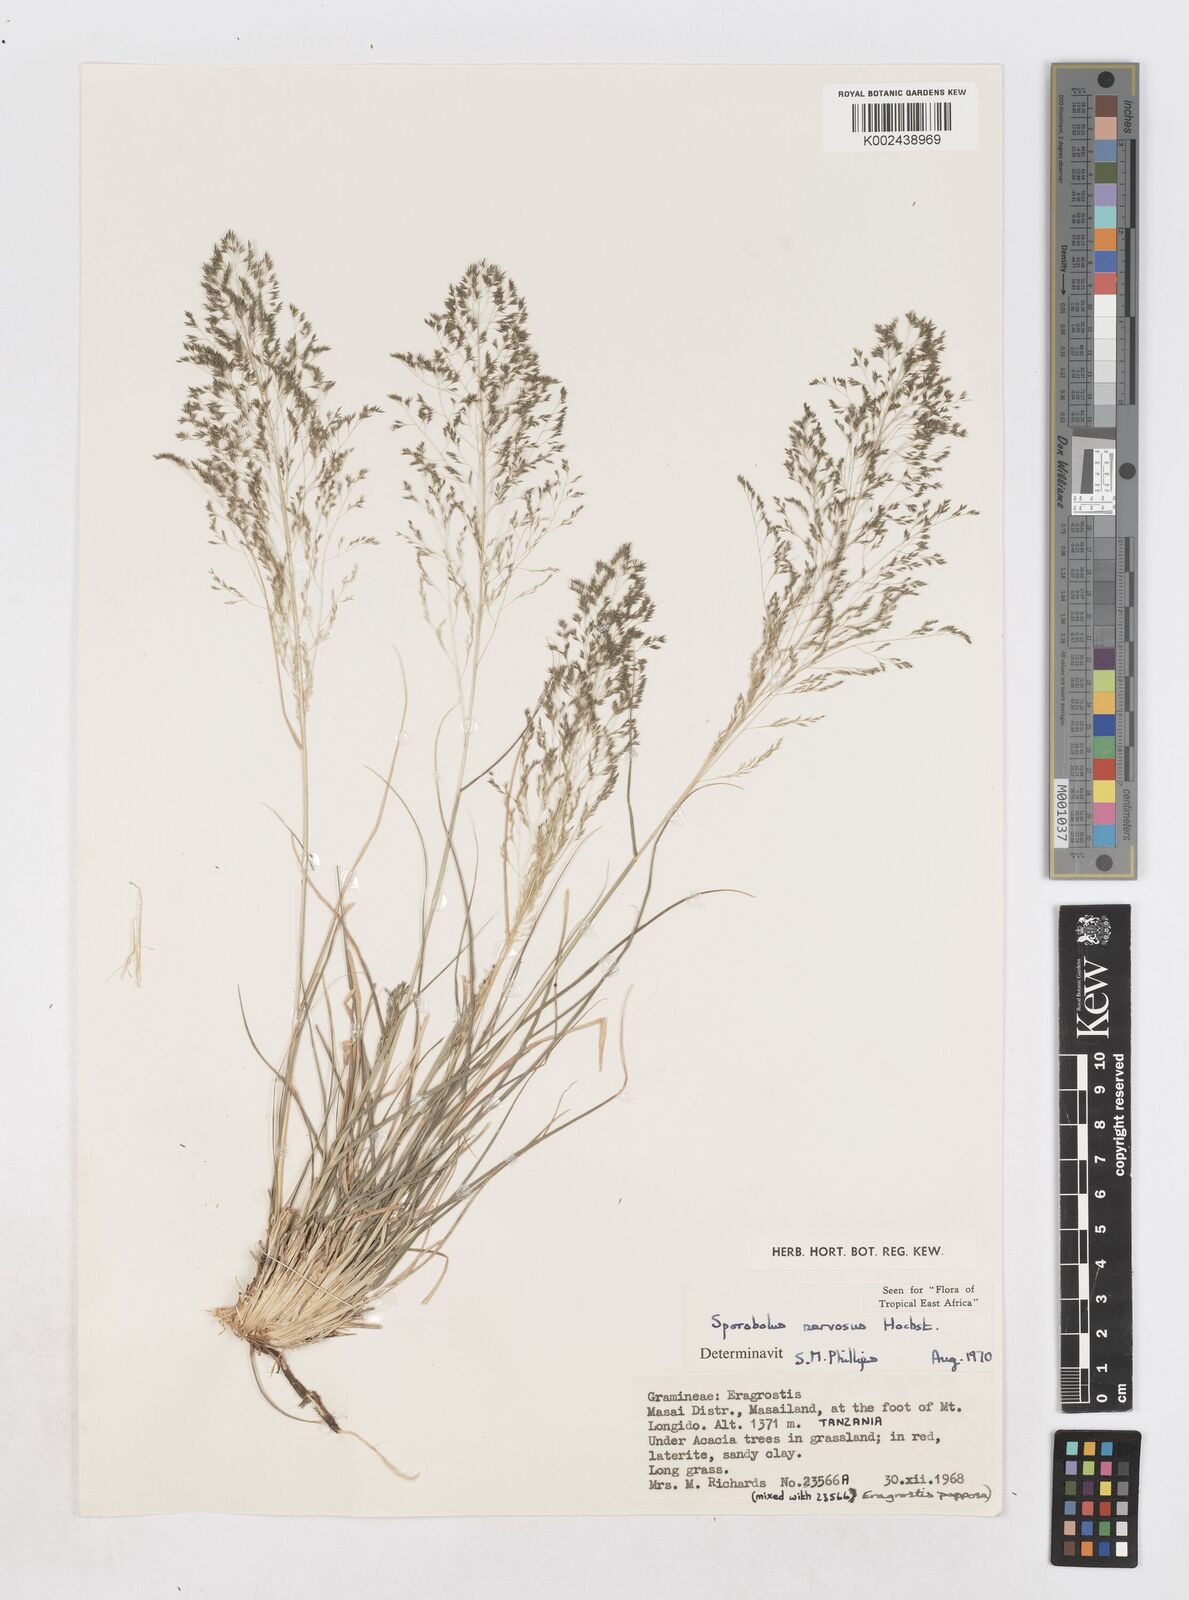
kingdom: Plantae
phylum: Tracheophyta
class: Liliopsida
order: Poales
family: Poaceae
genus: Sporobolus
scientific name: Sporobolus nervosus
